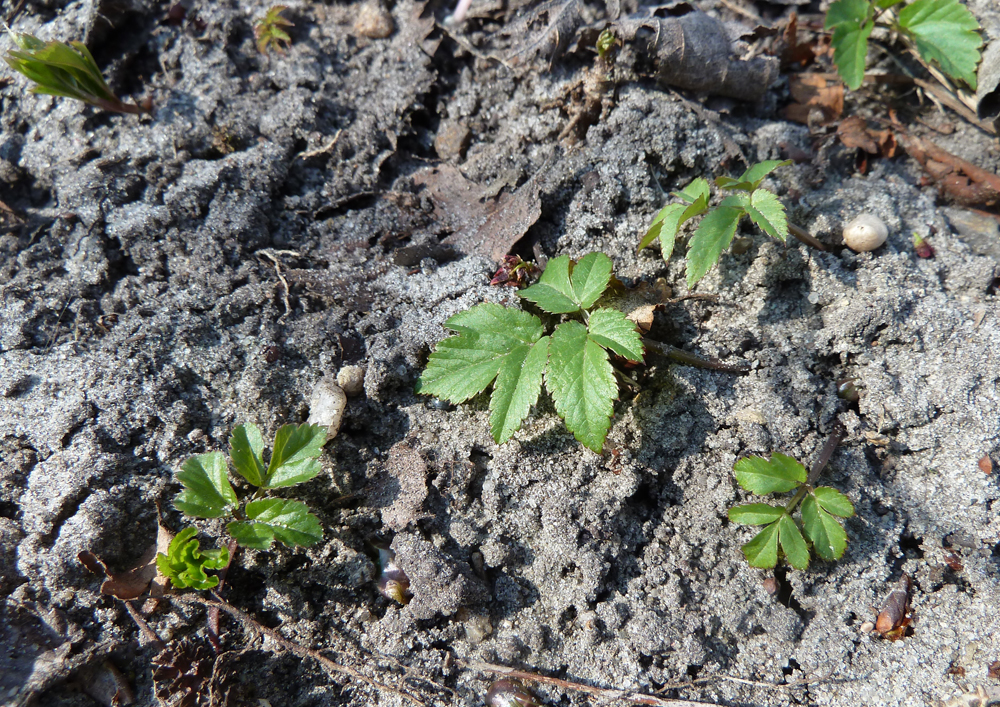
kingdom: Plantae
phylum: Tracheophyta
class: Magnoliopsida
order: Apiales
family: Apiaceae
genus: Aegopodium
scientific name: Aegopodium podagraria
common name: Ground-elder
